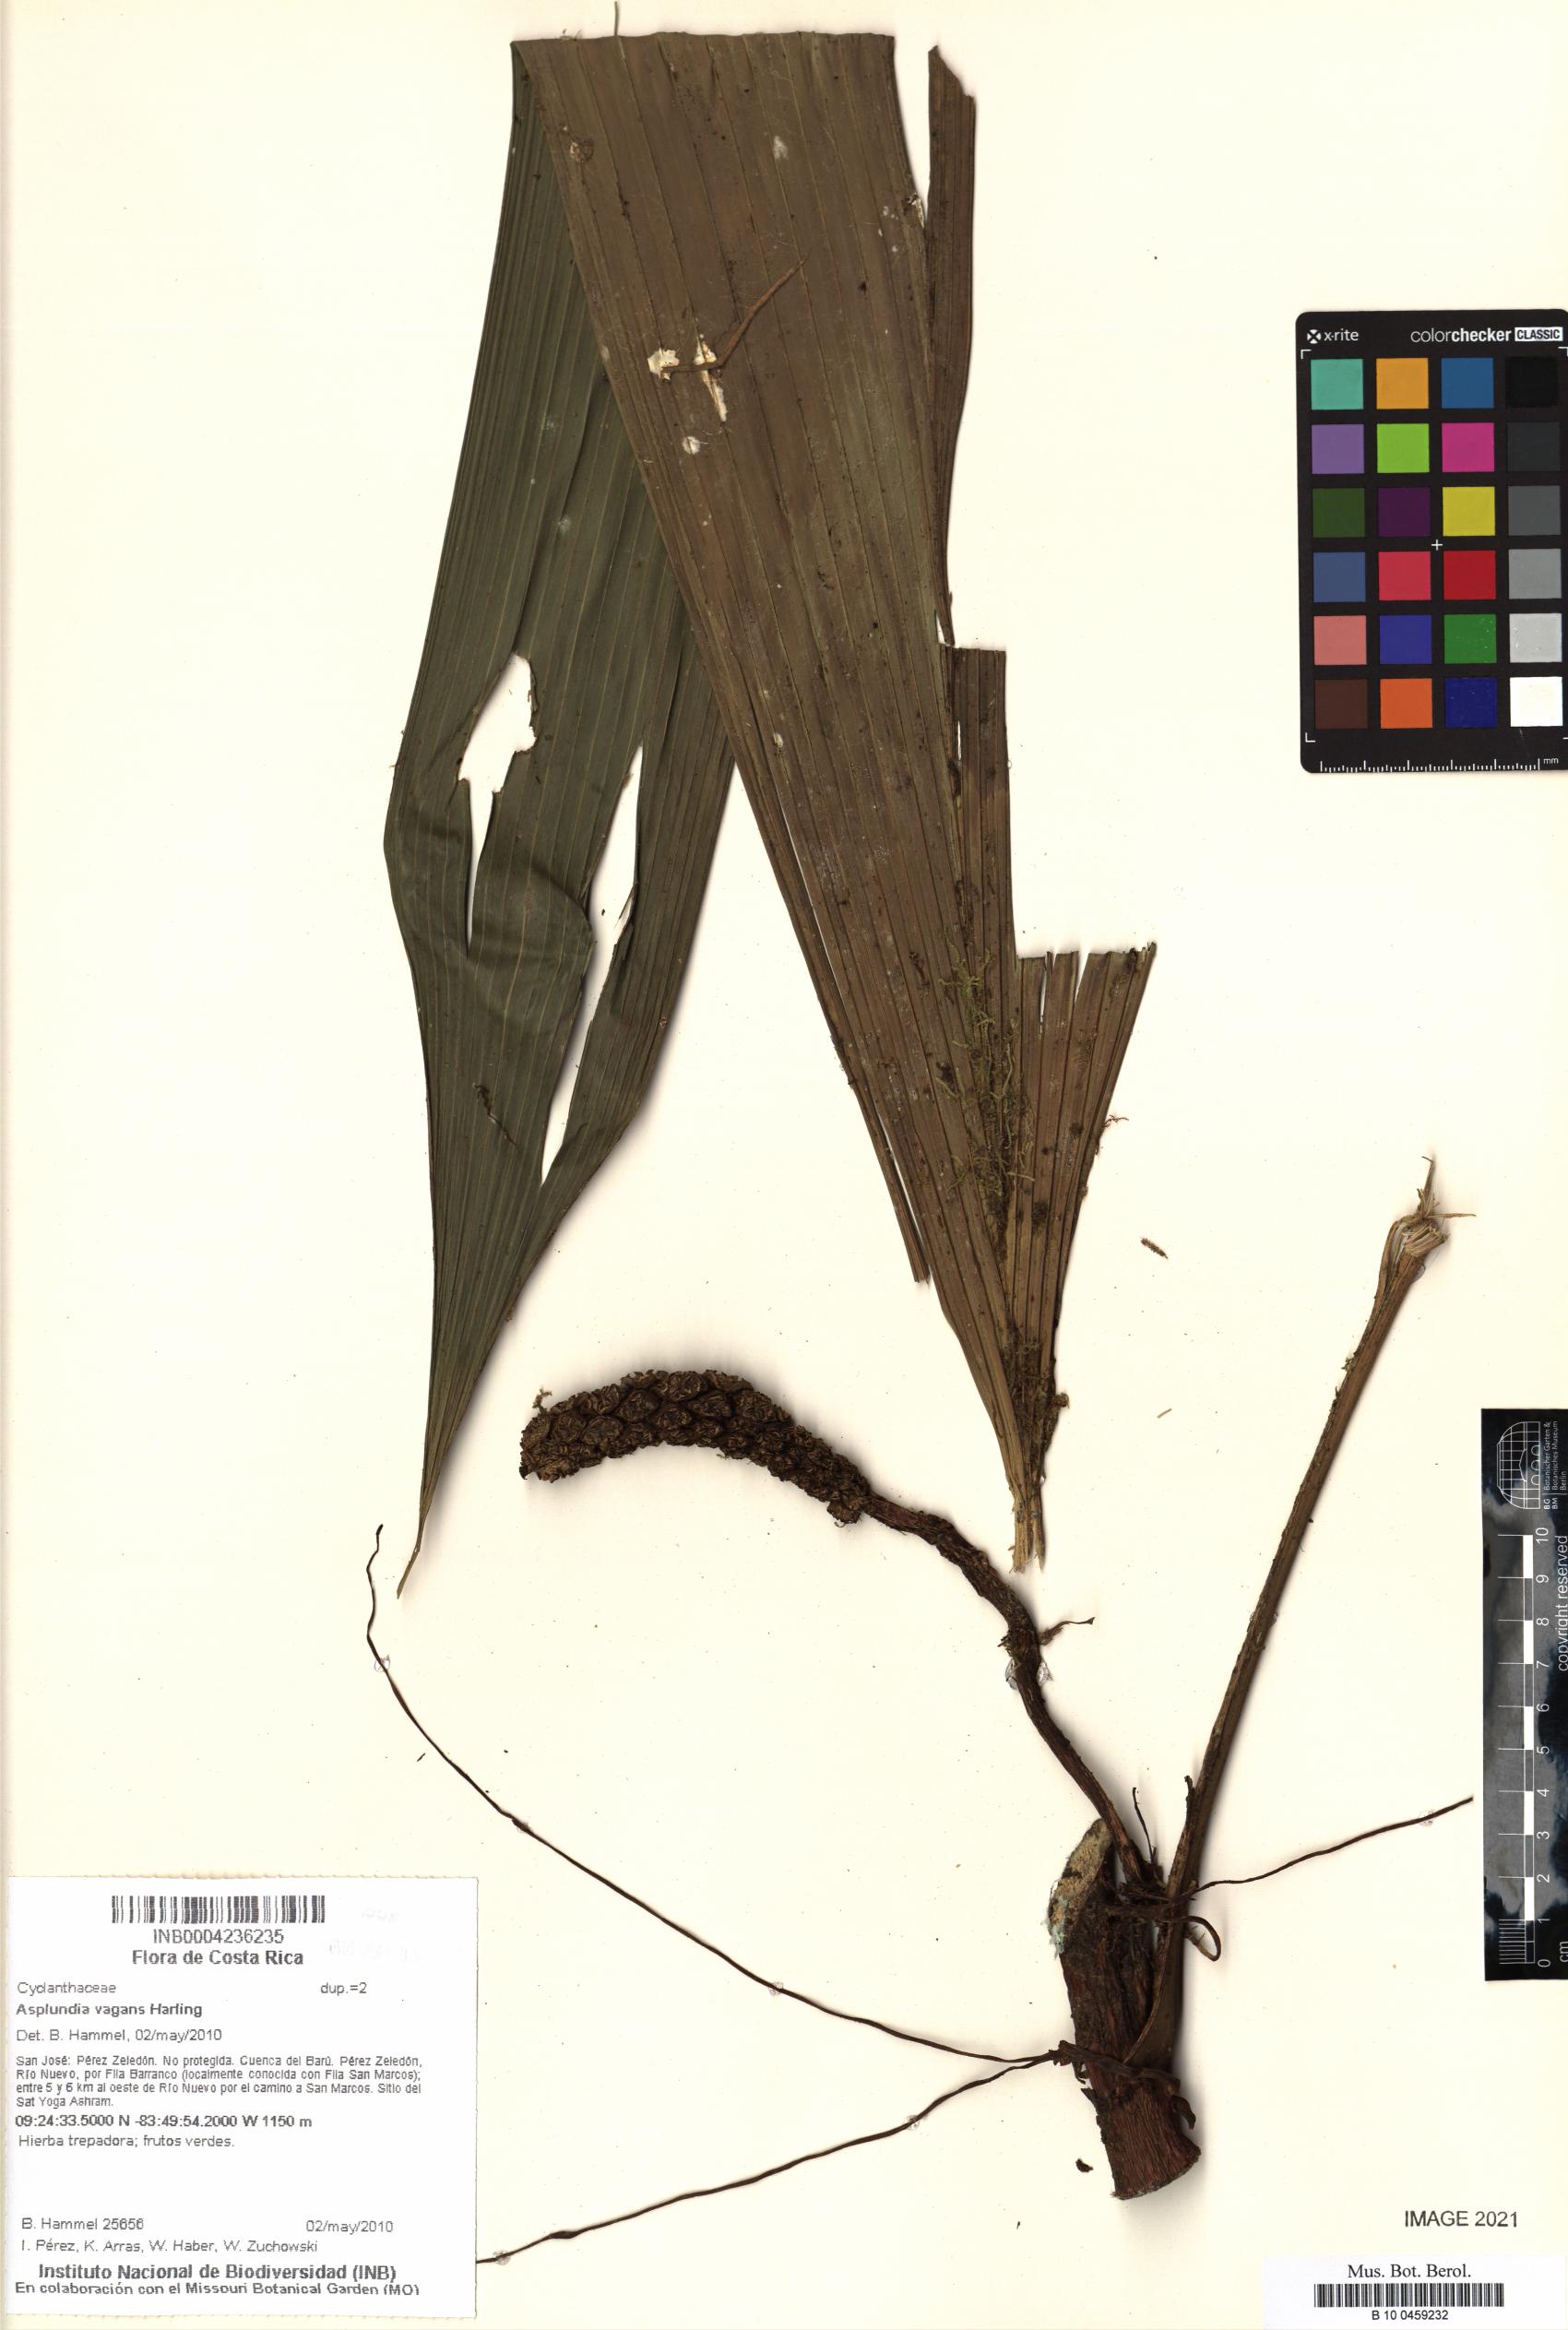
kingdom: Plantae
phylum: Tracheophyta
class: Liliopsida
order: Pandanales
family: Cyclanthaceae
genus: Asplundia
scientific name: Asplundia vagans
